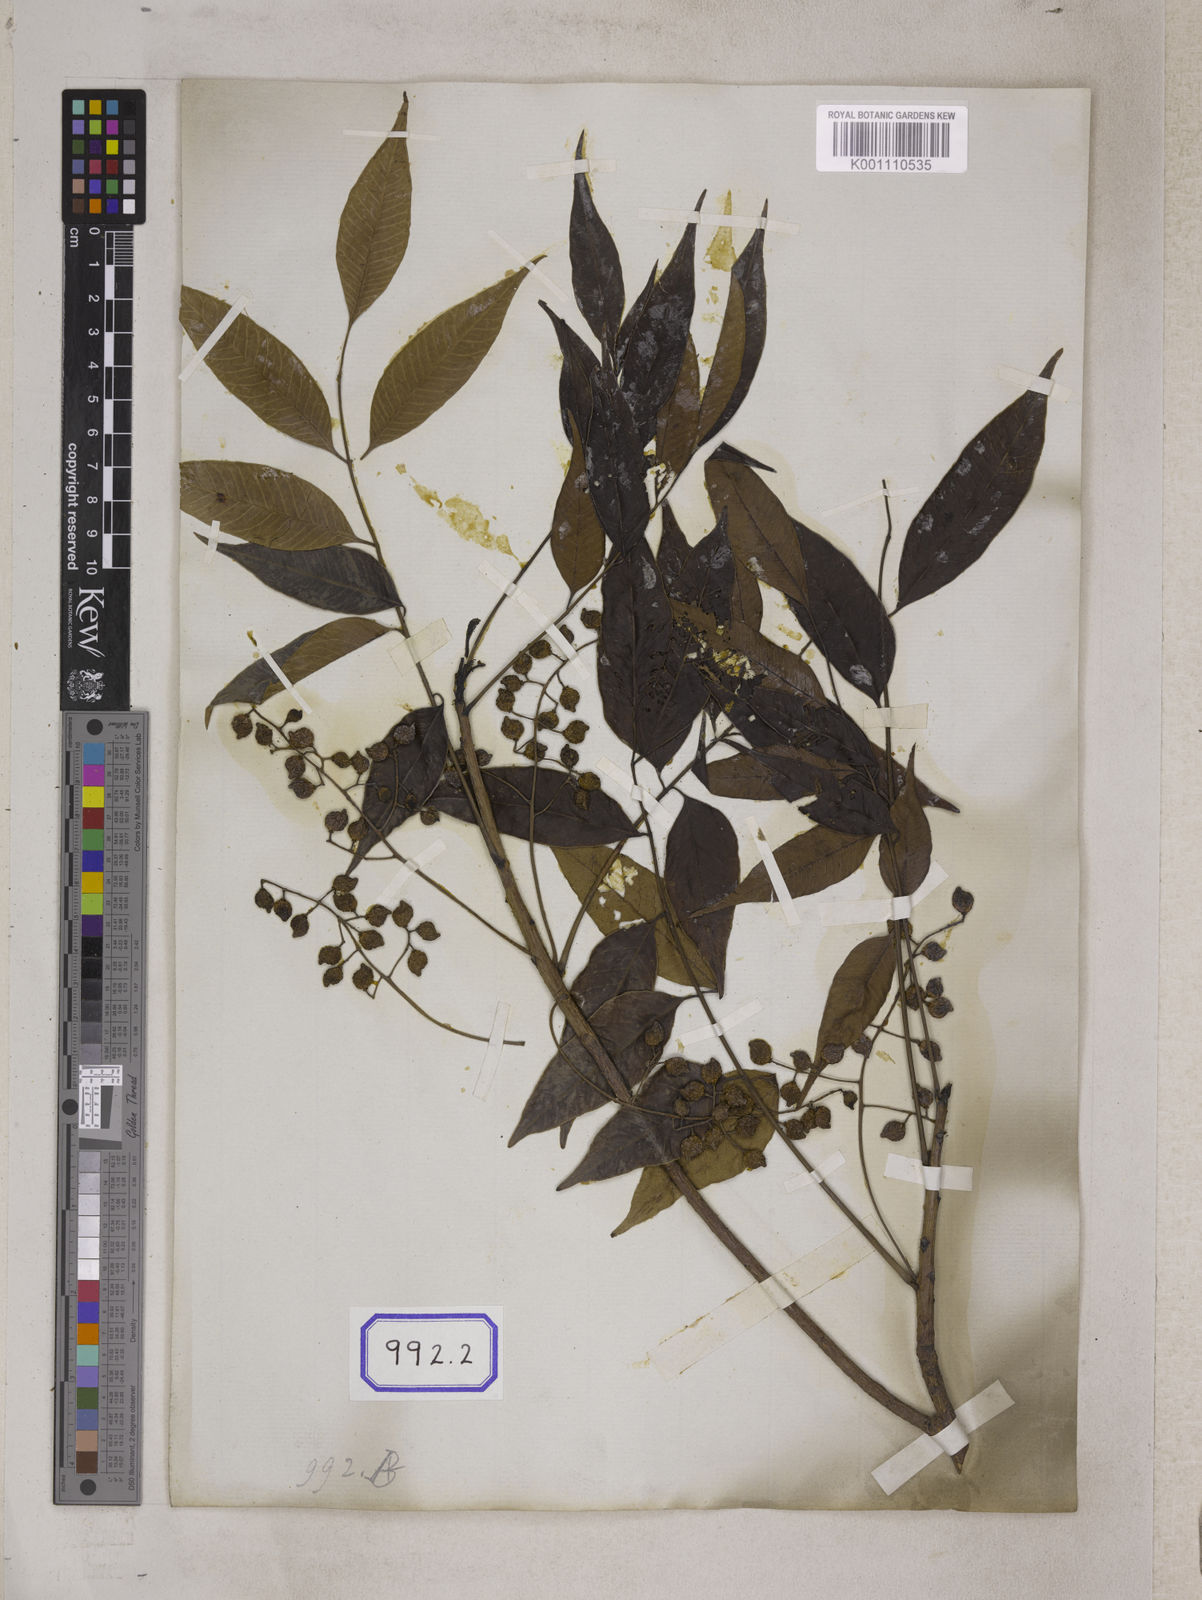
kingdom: Plantae
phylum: Tracheophyta
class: Magnoliopsida
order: Sapindales
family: Anacardiaceae
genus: Toxicodendron
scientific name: Toxicodendron succedaneum
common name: Wax tree
